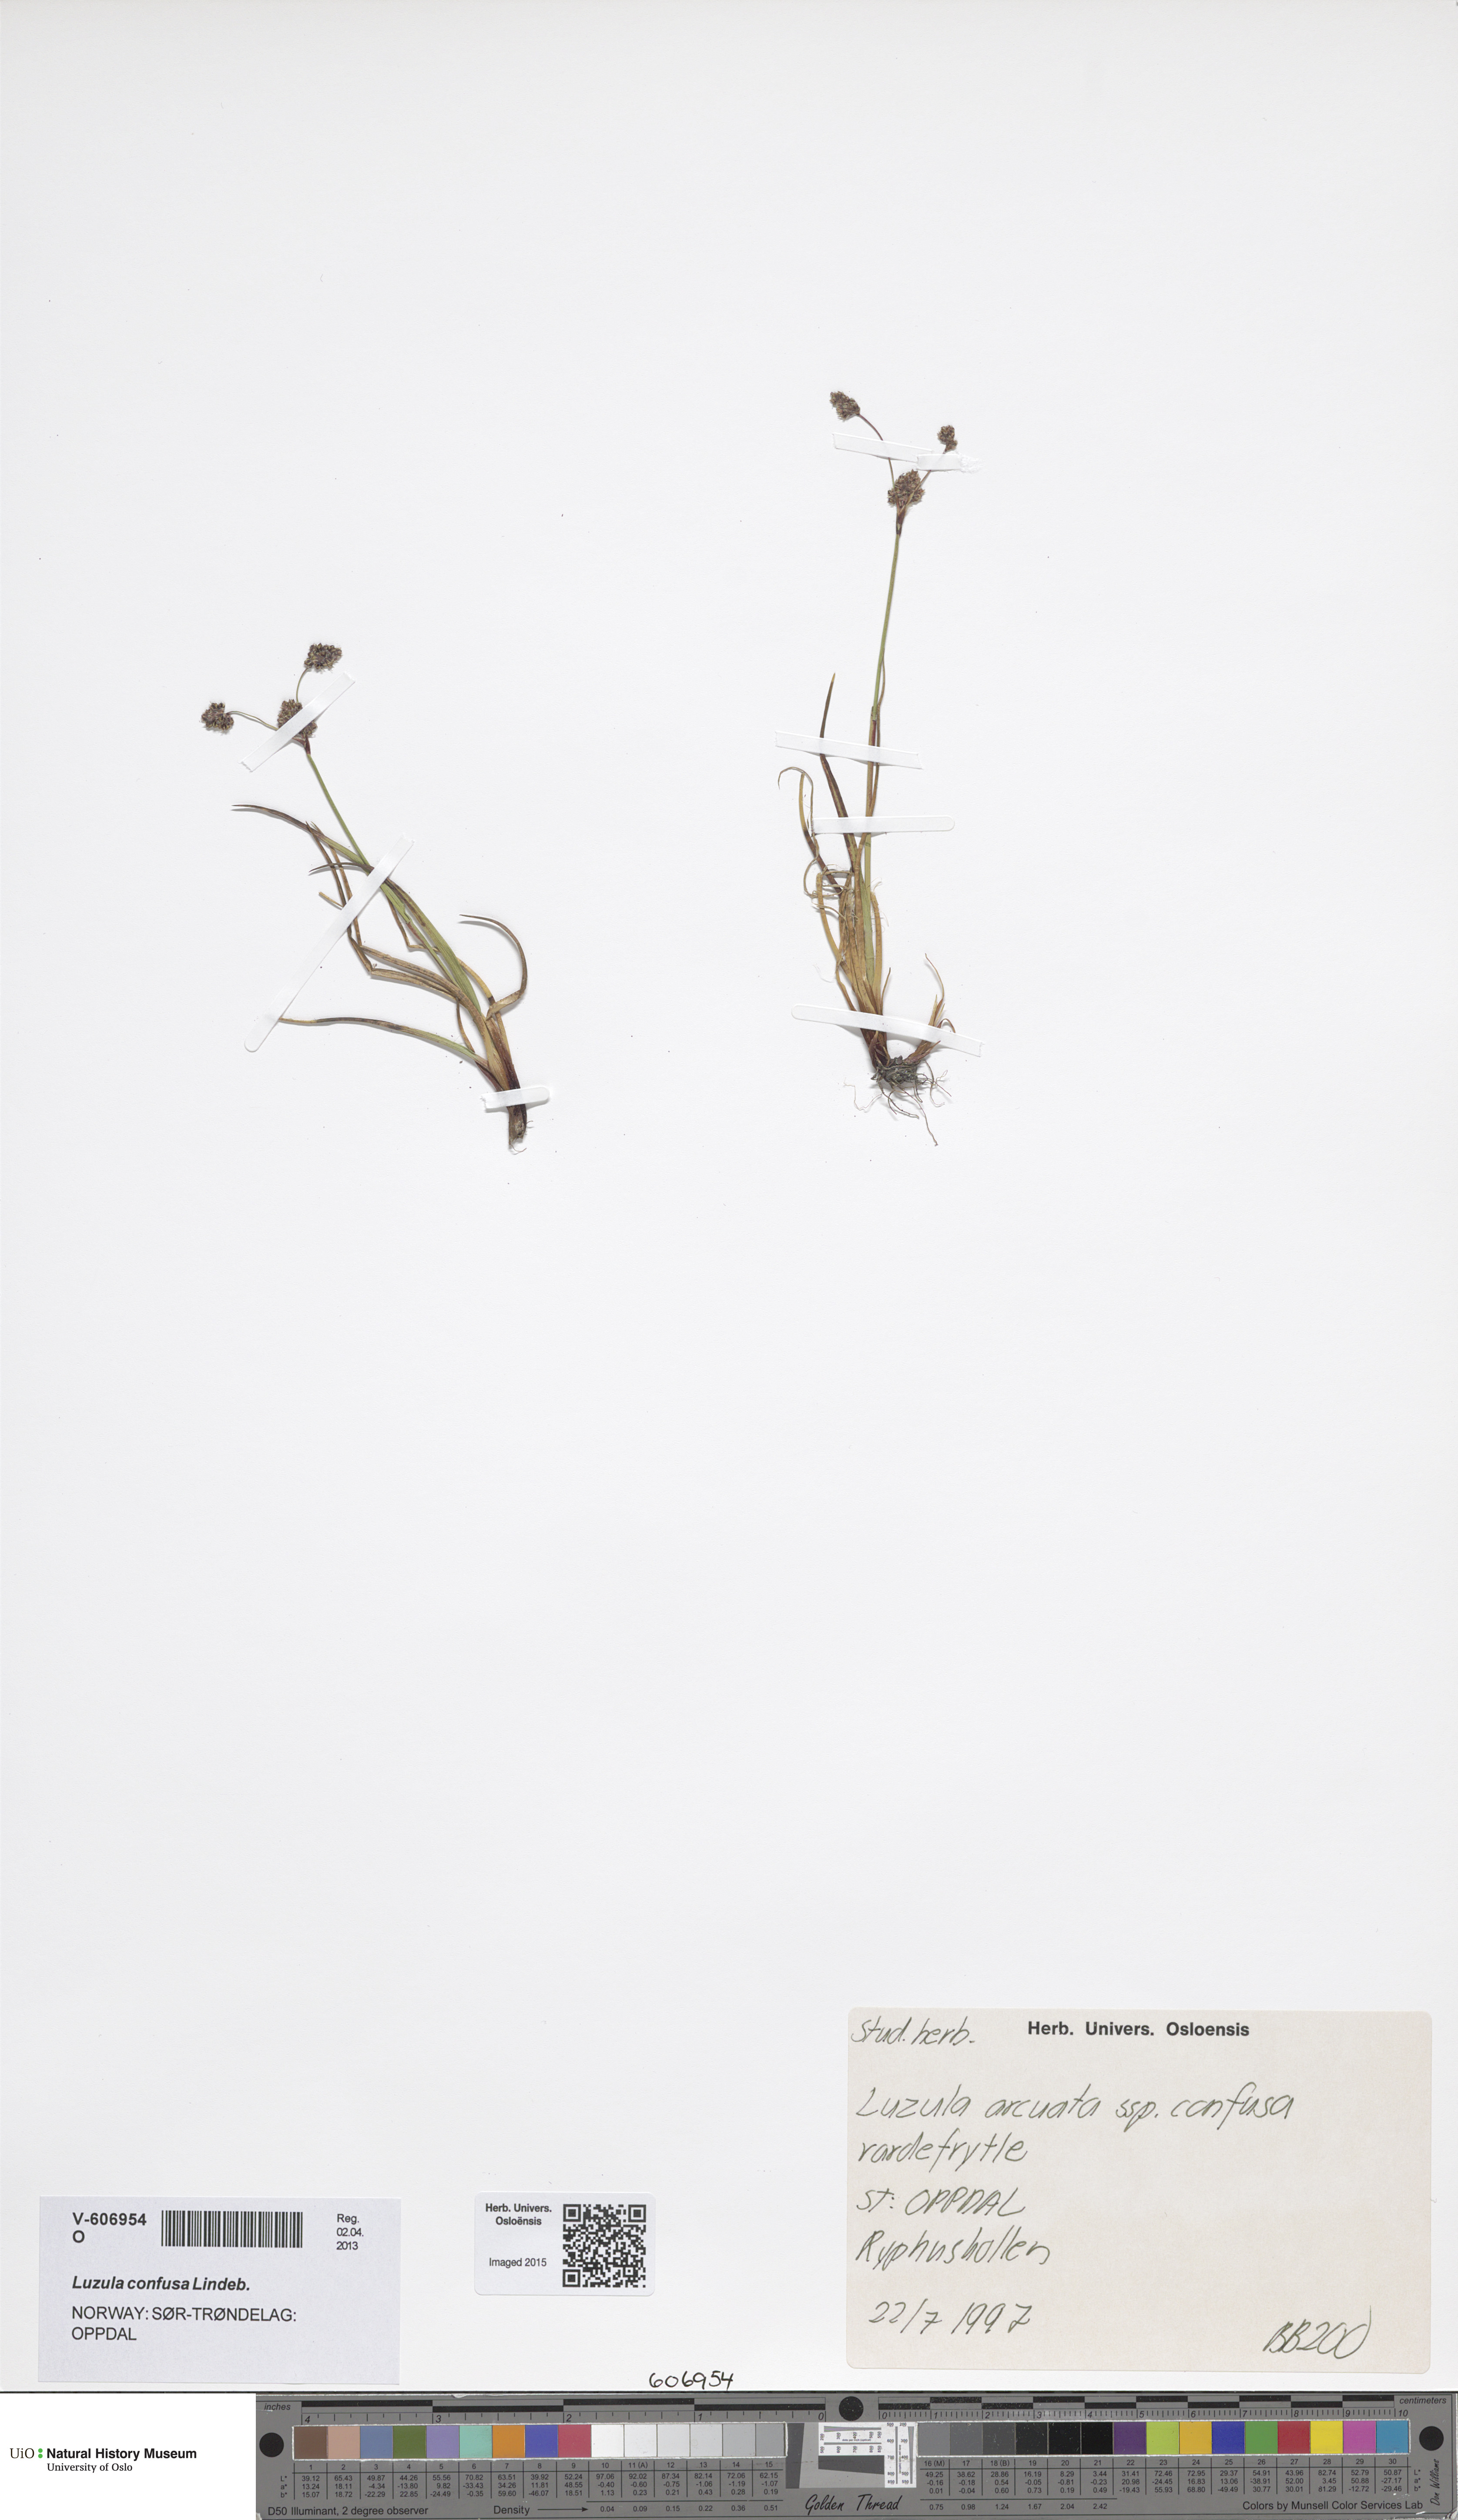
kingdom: Plantae
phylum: Tracheophyta
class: Liliopsida
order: Poales
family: Juncaceae
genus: Luzula
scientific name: Luzula confusa
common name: Northern wood rush
